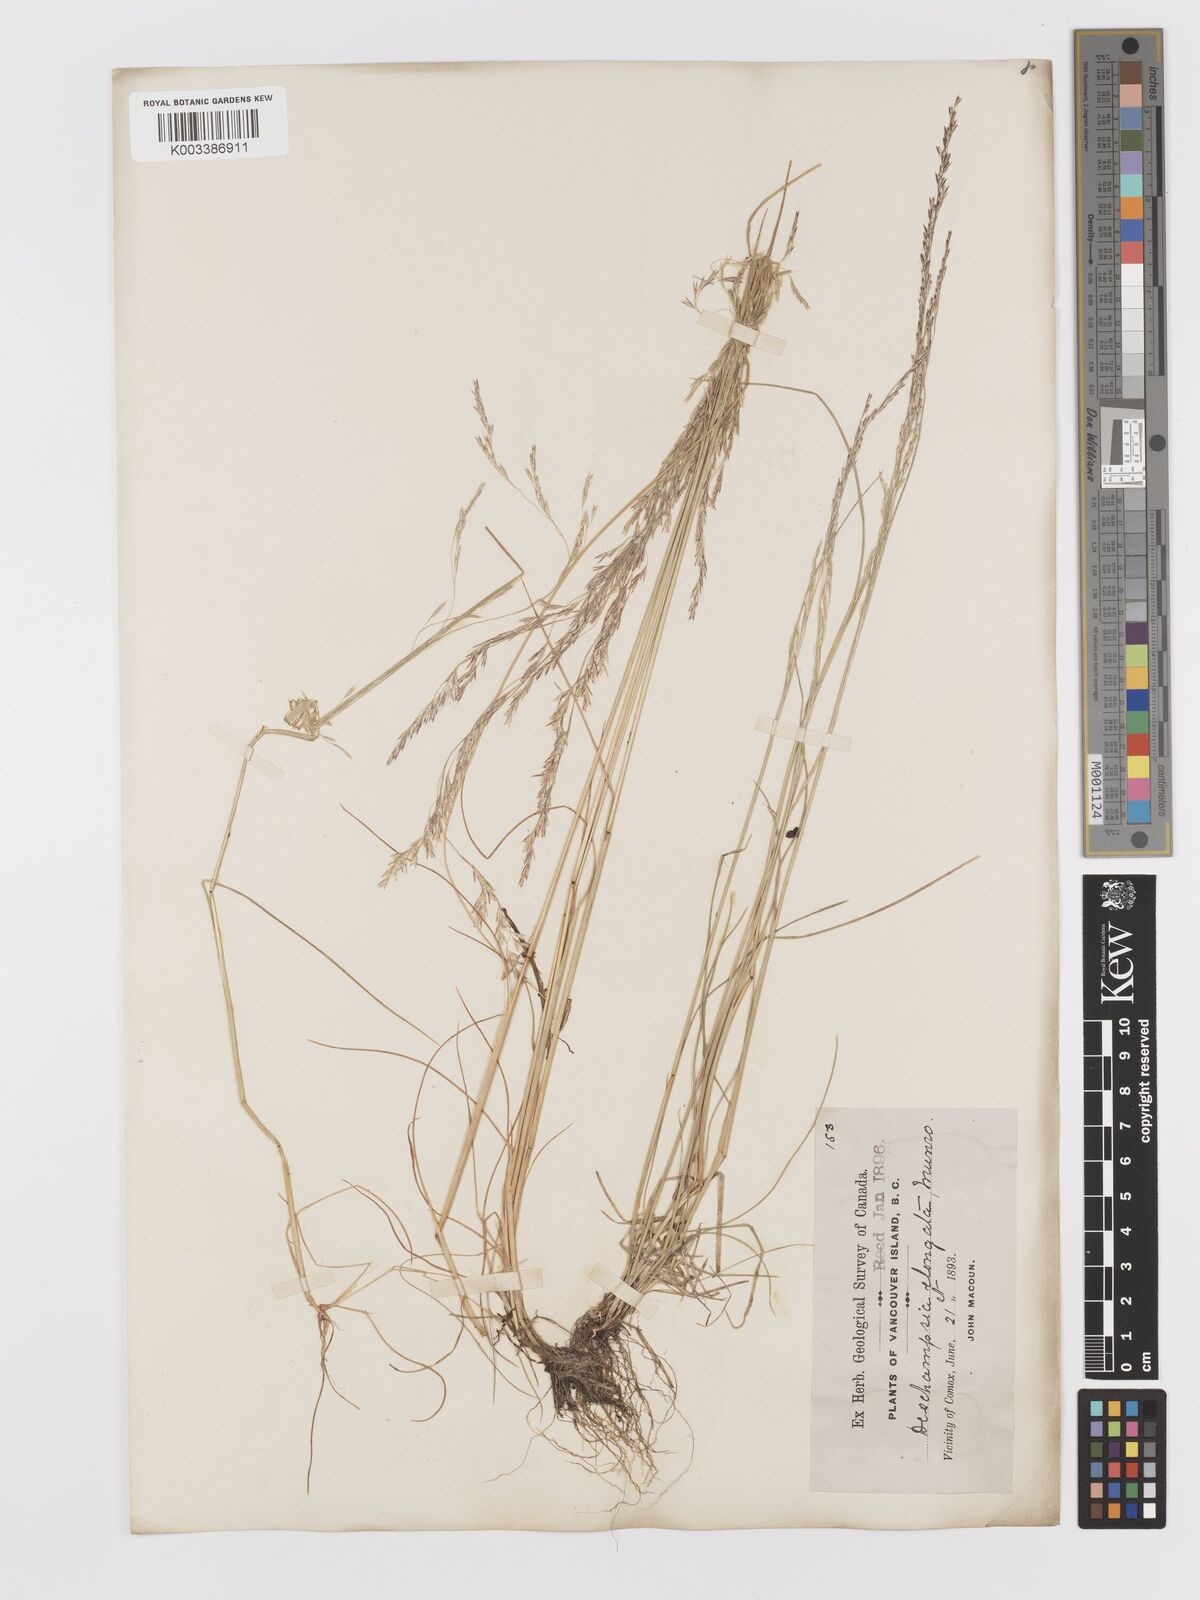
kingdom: Plantae
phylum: Tracheophyta
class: Liliopsida
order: Poales
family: Poaceae
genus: Deschampsia
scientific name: Deschampsia elongata
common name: Slender hairgrass
